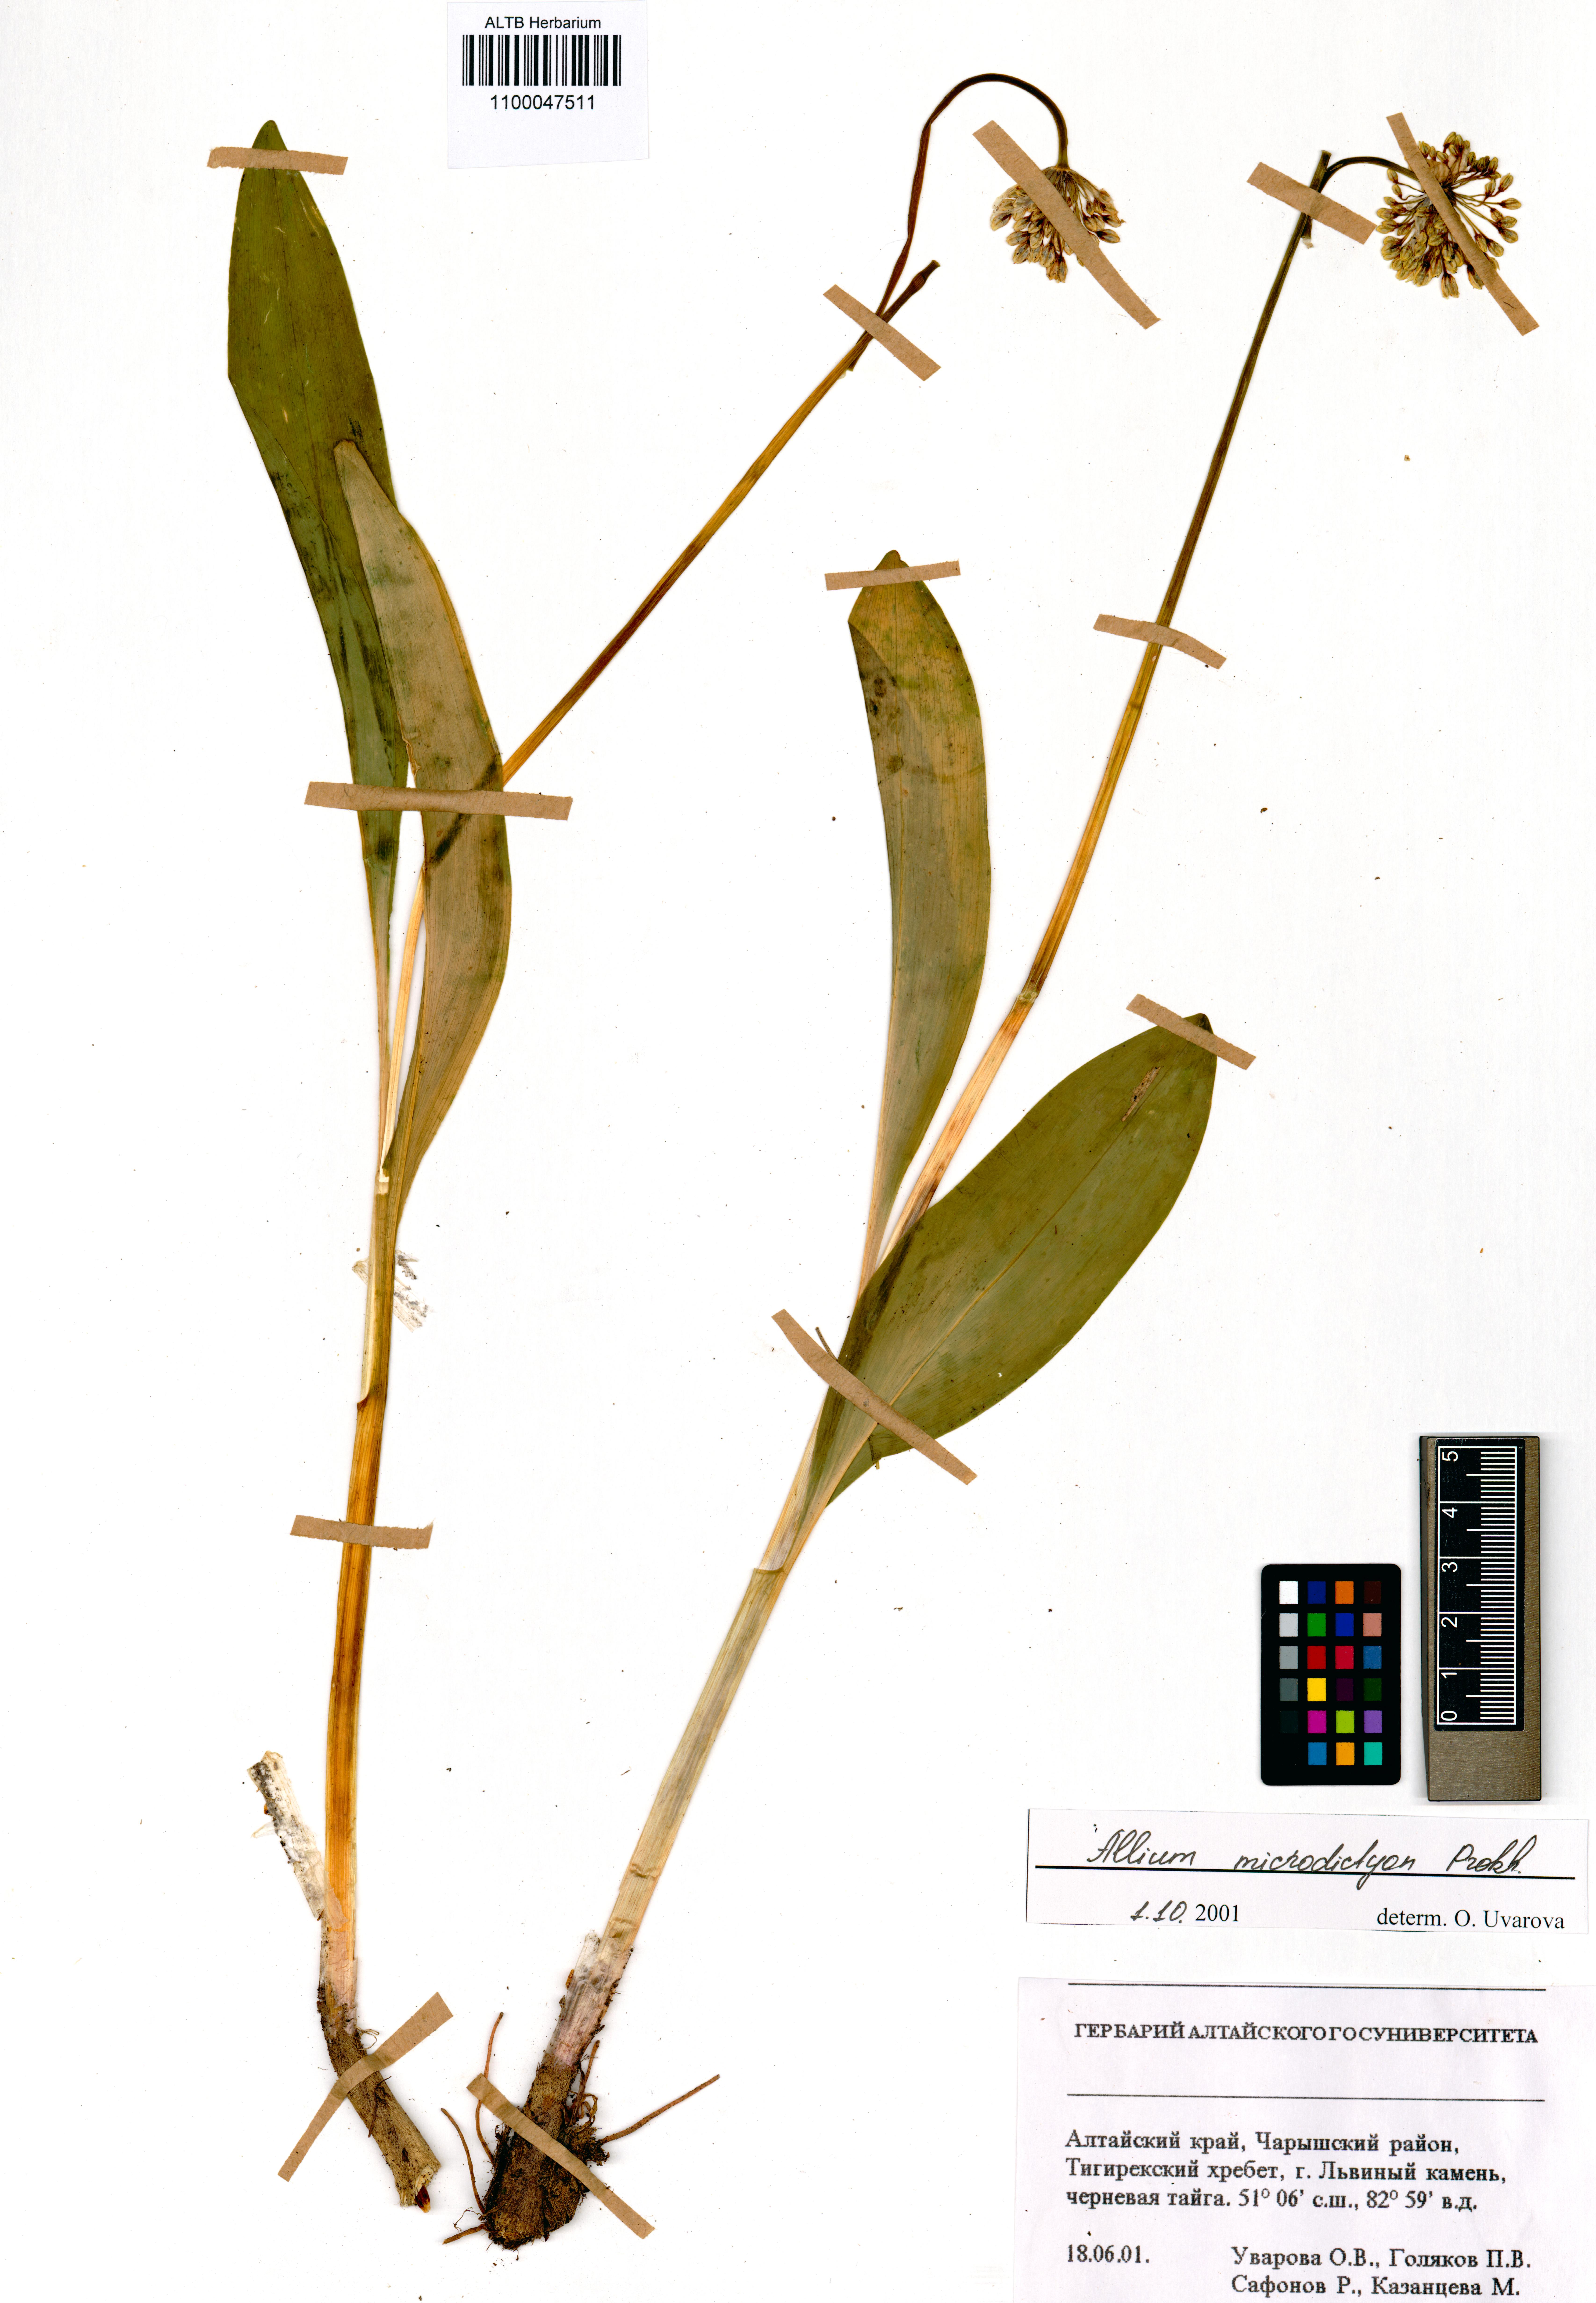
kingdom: Plantae
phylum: Tracheophyta
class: Liliopsida
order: Asparagales
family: Amaryllidaceae
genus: Allium
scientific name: Allium microdictyon
